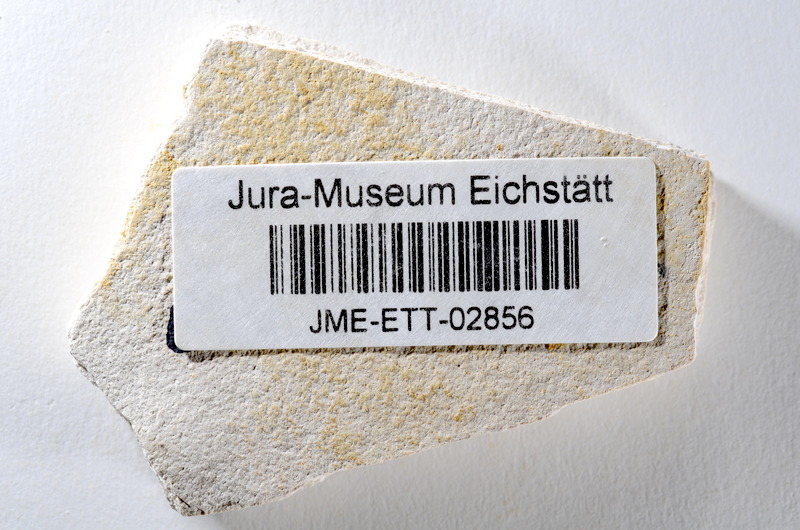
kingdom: Animalia
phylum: Chordata
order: Salmoniformes
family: Orthogonikleithridae
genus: Orthogonikleithrus
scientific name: Orthogonikleithrus hoelli
